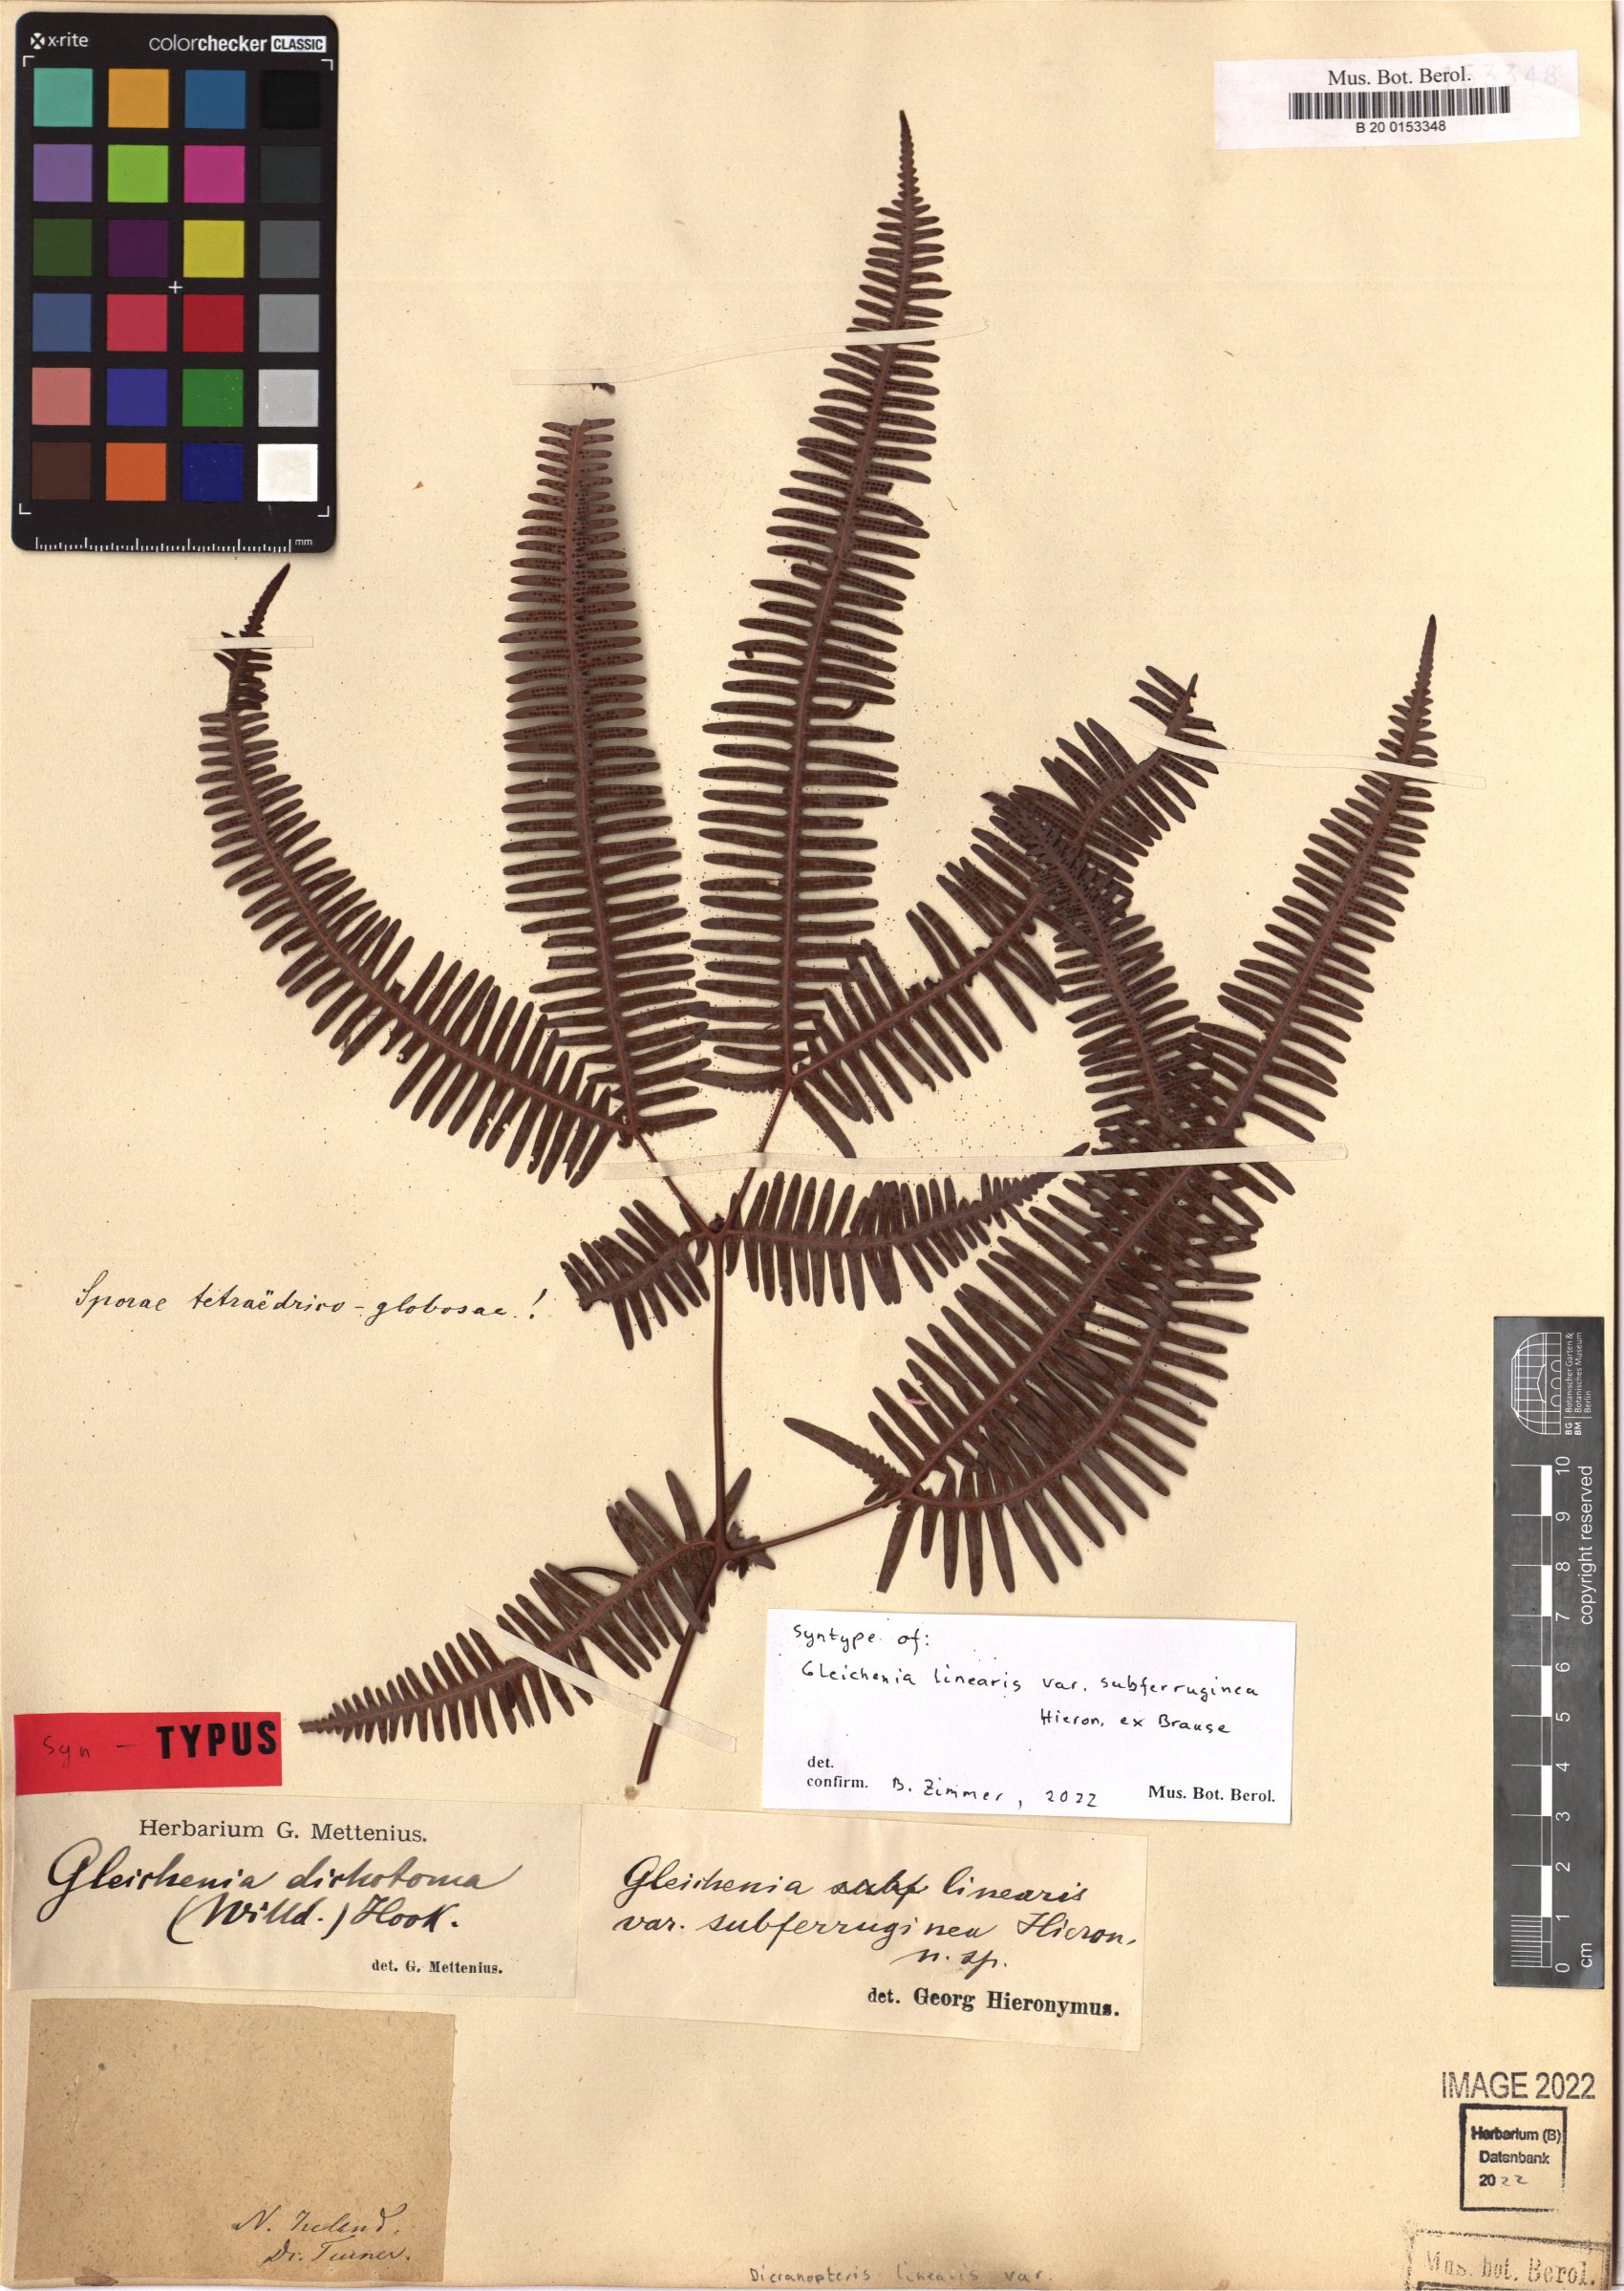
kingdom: Plantae
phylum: Tracheophyta
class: Polypodiopsida
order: Gleicheniales
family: Gleicheniaceae
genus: Dicranopteris
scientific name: Dicranopteris linearis
